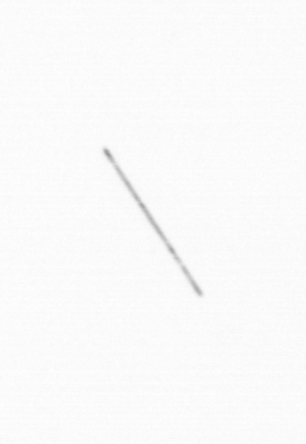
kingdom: Chromista
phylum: Ochrophyta
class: Bacillariophyceae
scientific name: Bacillariophyceae
